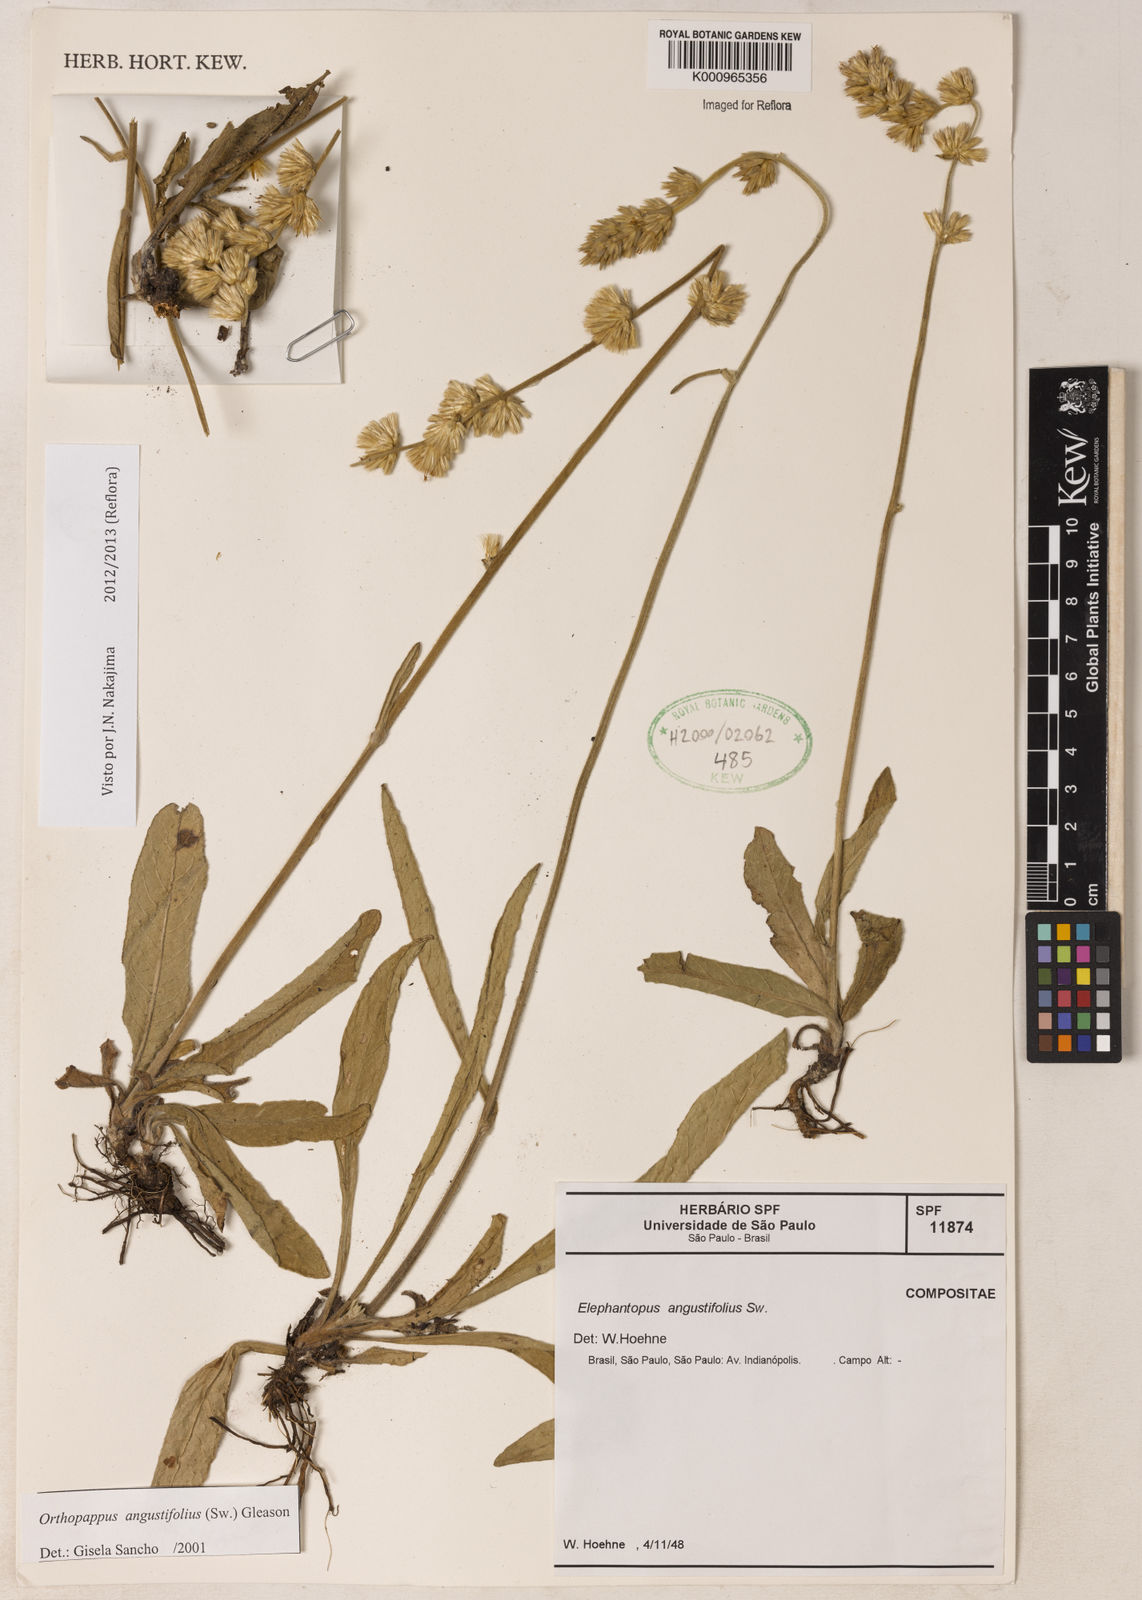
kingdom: Plantae
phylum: Tracheophyta
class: Magnoliopsida
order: Asterales
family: Asteraceae
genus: Orthopappus
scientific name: Orthopappus angustifolius
